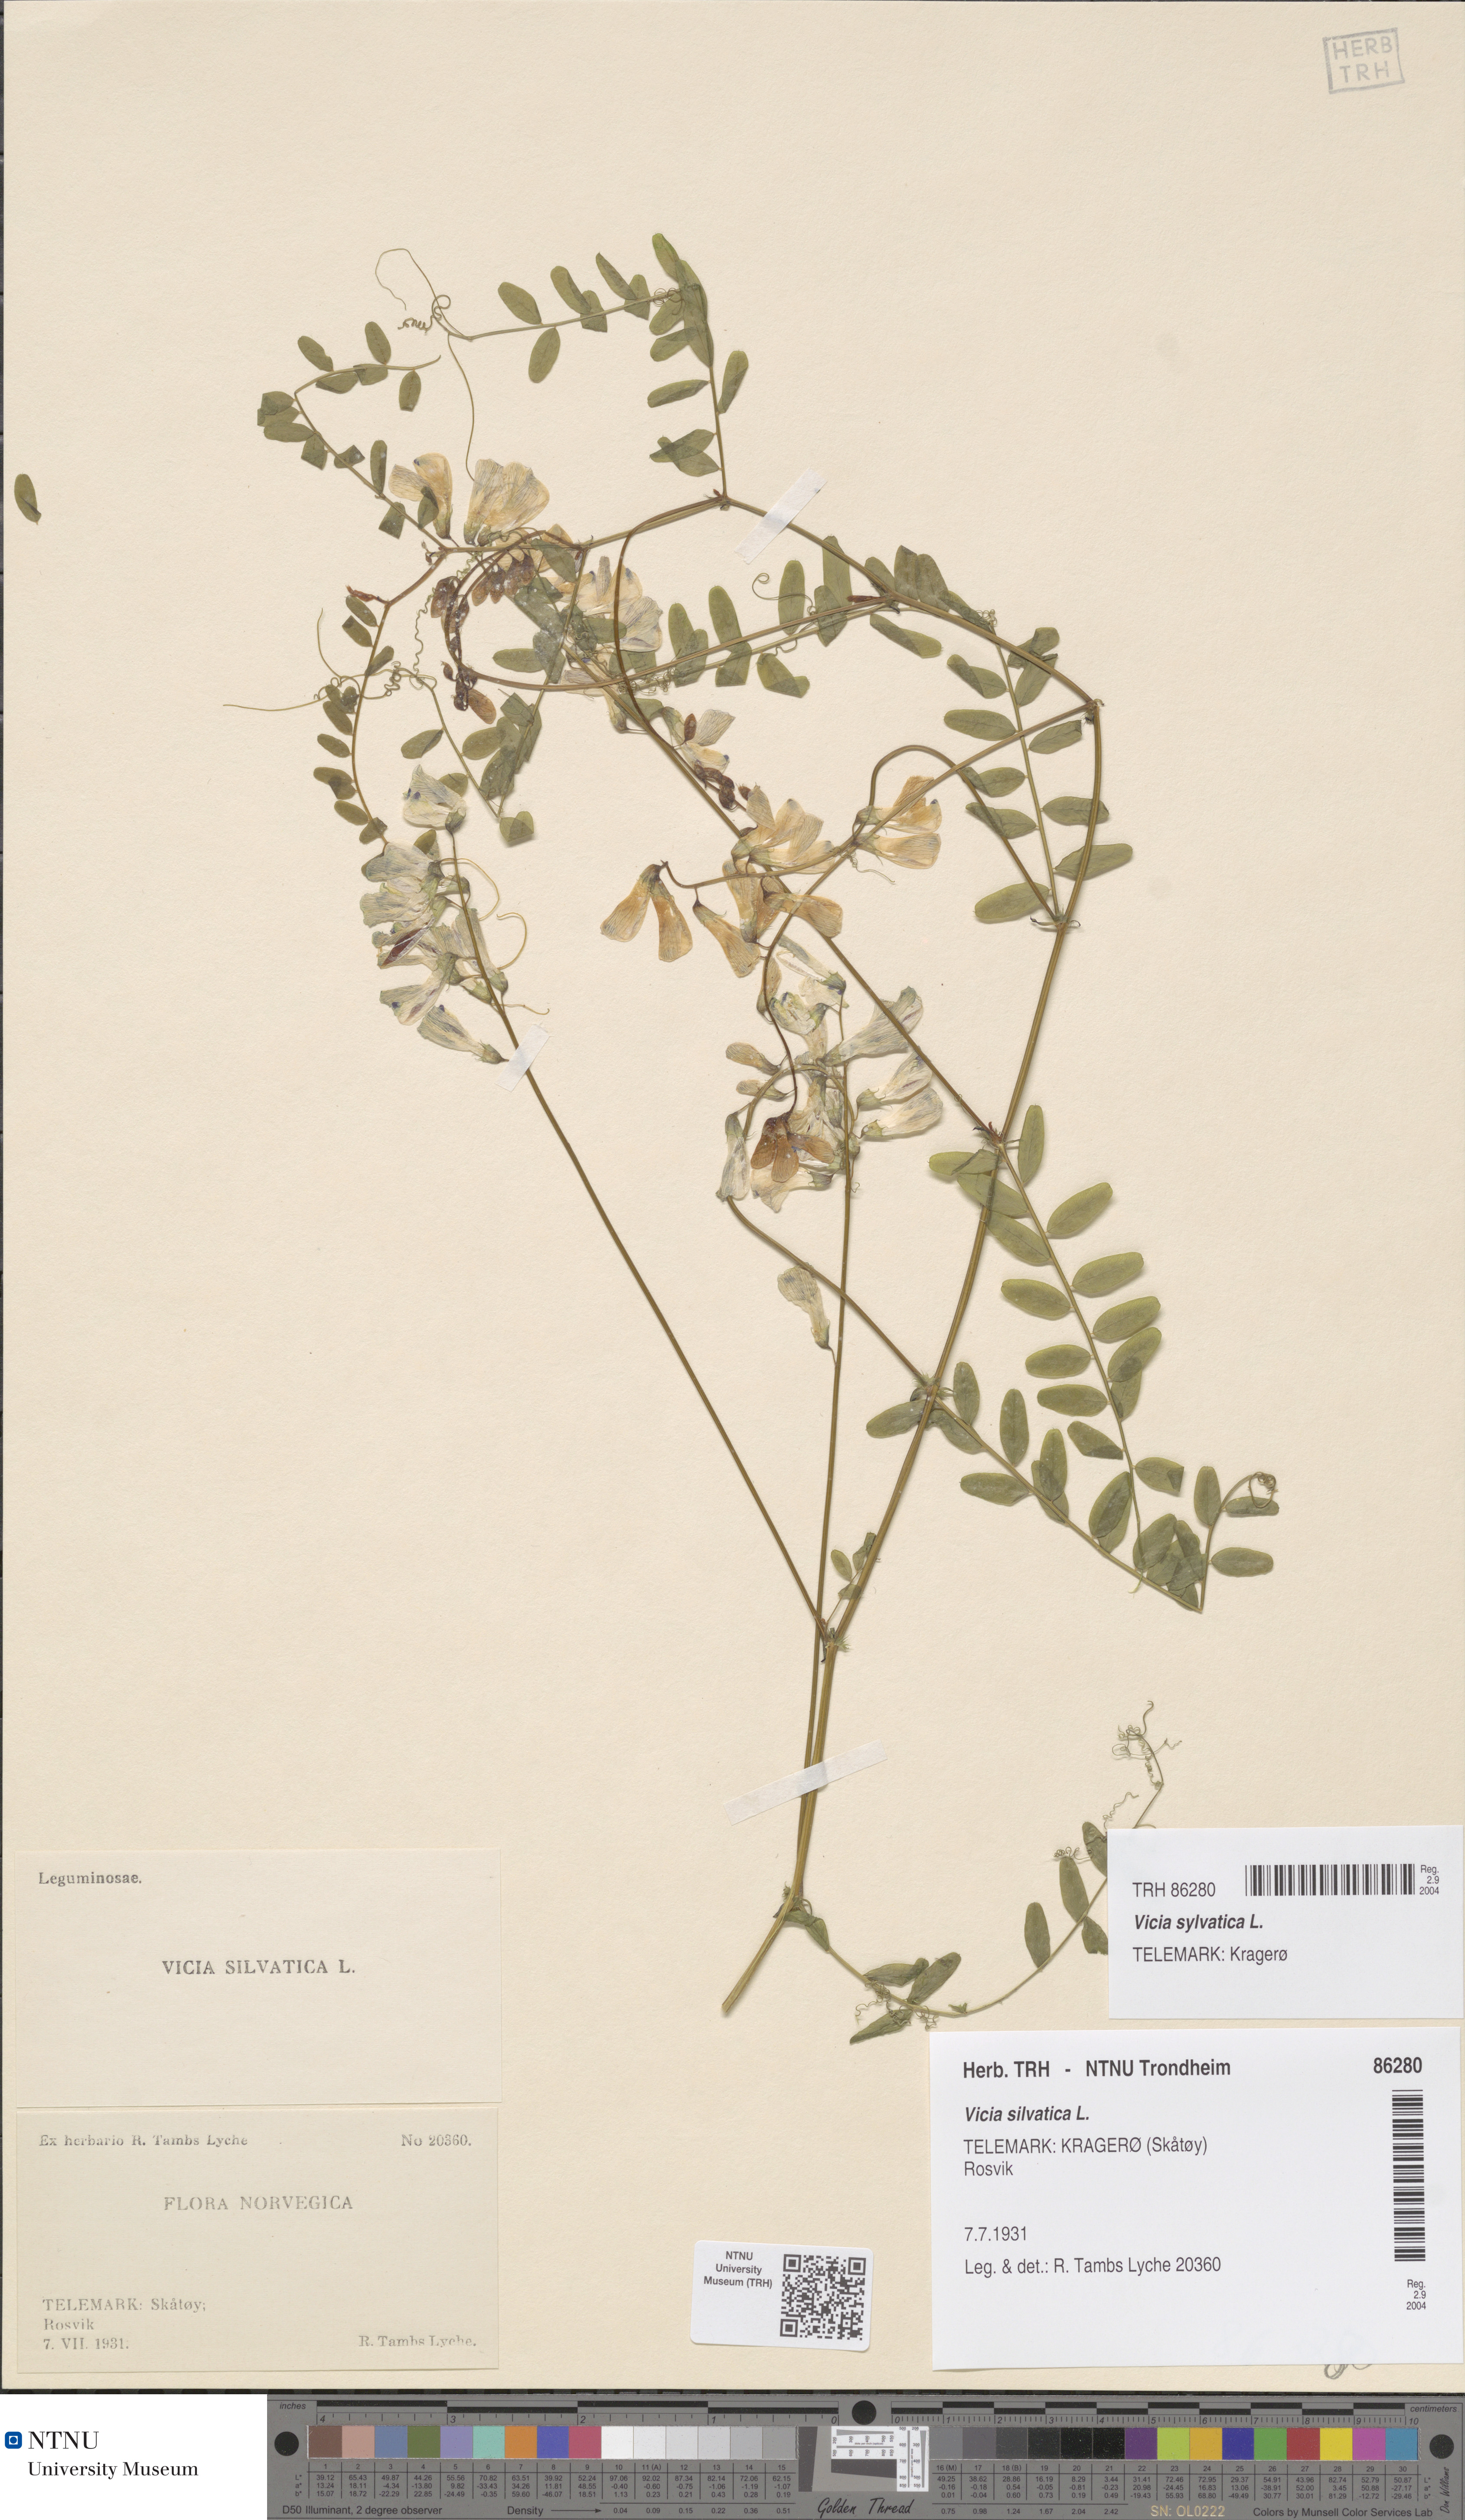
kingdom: Plantae
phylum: Tracheophyta
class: Magnoliopsida
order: Fabales
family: Fabaceae
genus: Vicia
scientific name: Vicia sylvatica
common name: Wood vetch
